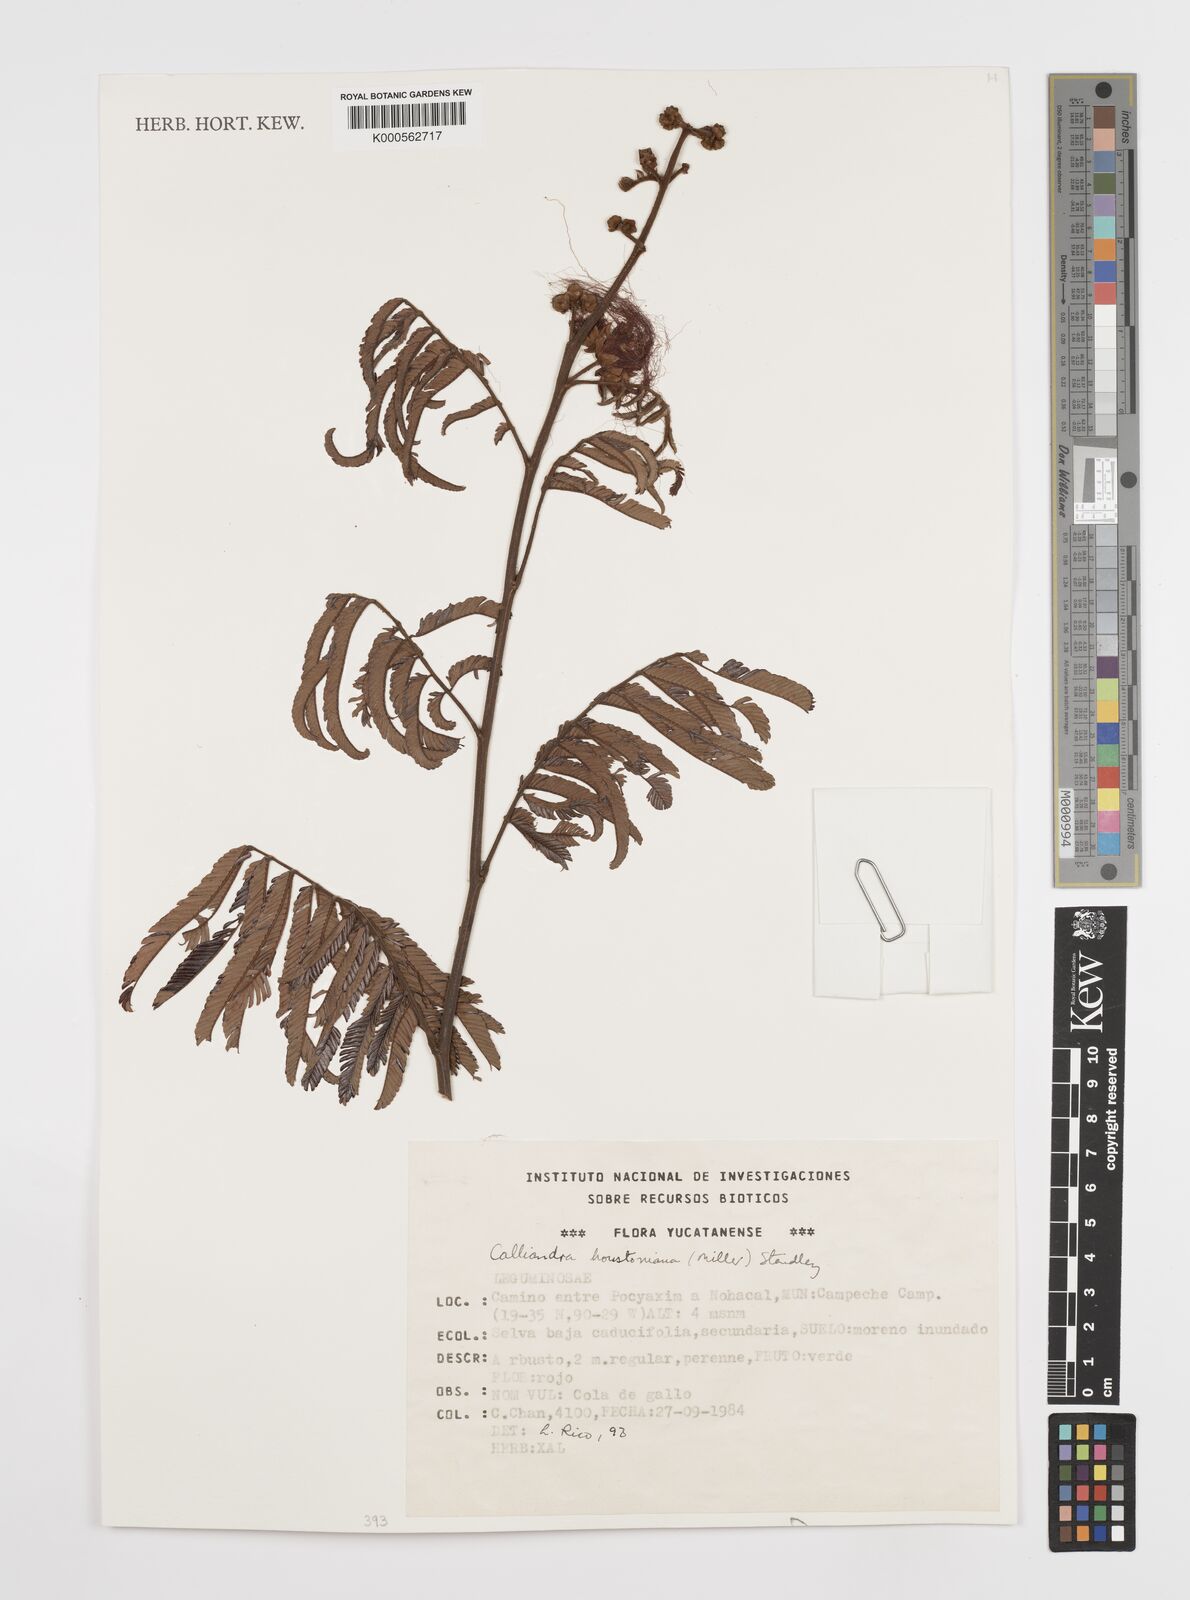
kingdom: Plantae
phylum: Tracheophyta
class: Magnoliopsida
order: Fabales
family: Fabaceae
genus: Calliandra
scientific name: Calliandra houstoniana
